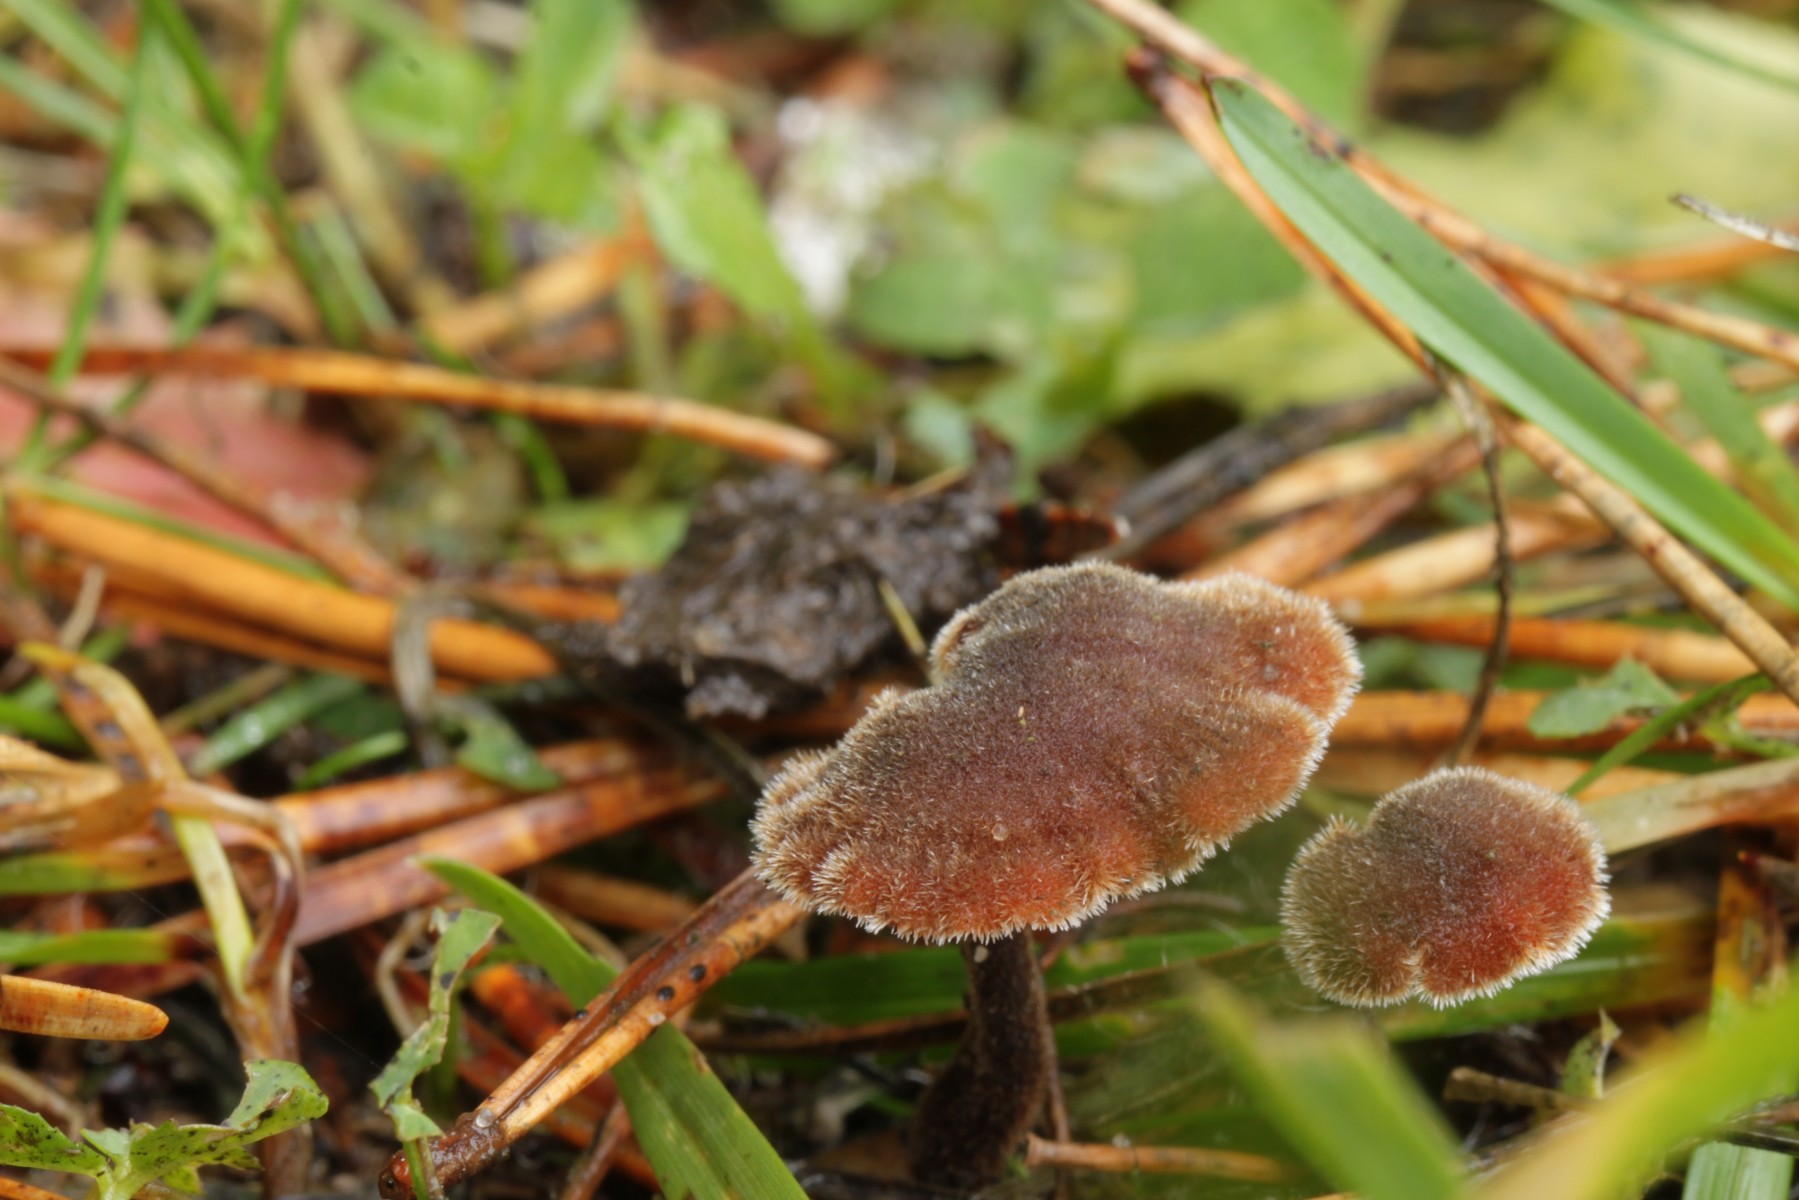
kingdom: Fungi
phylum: Basidiomycota
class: Agaricomycetes
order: Russulales
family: Auriscalpiaceae
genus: Auriscalpium
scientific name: Auriscalpium vulgare
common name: koglepigsvamp
